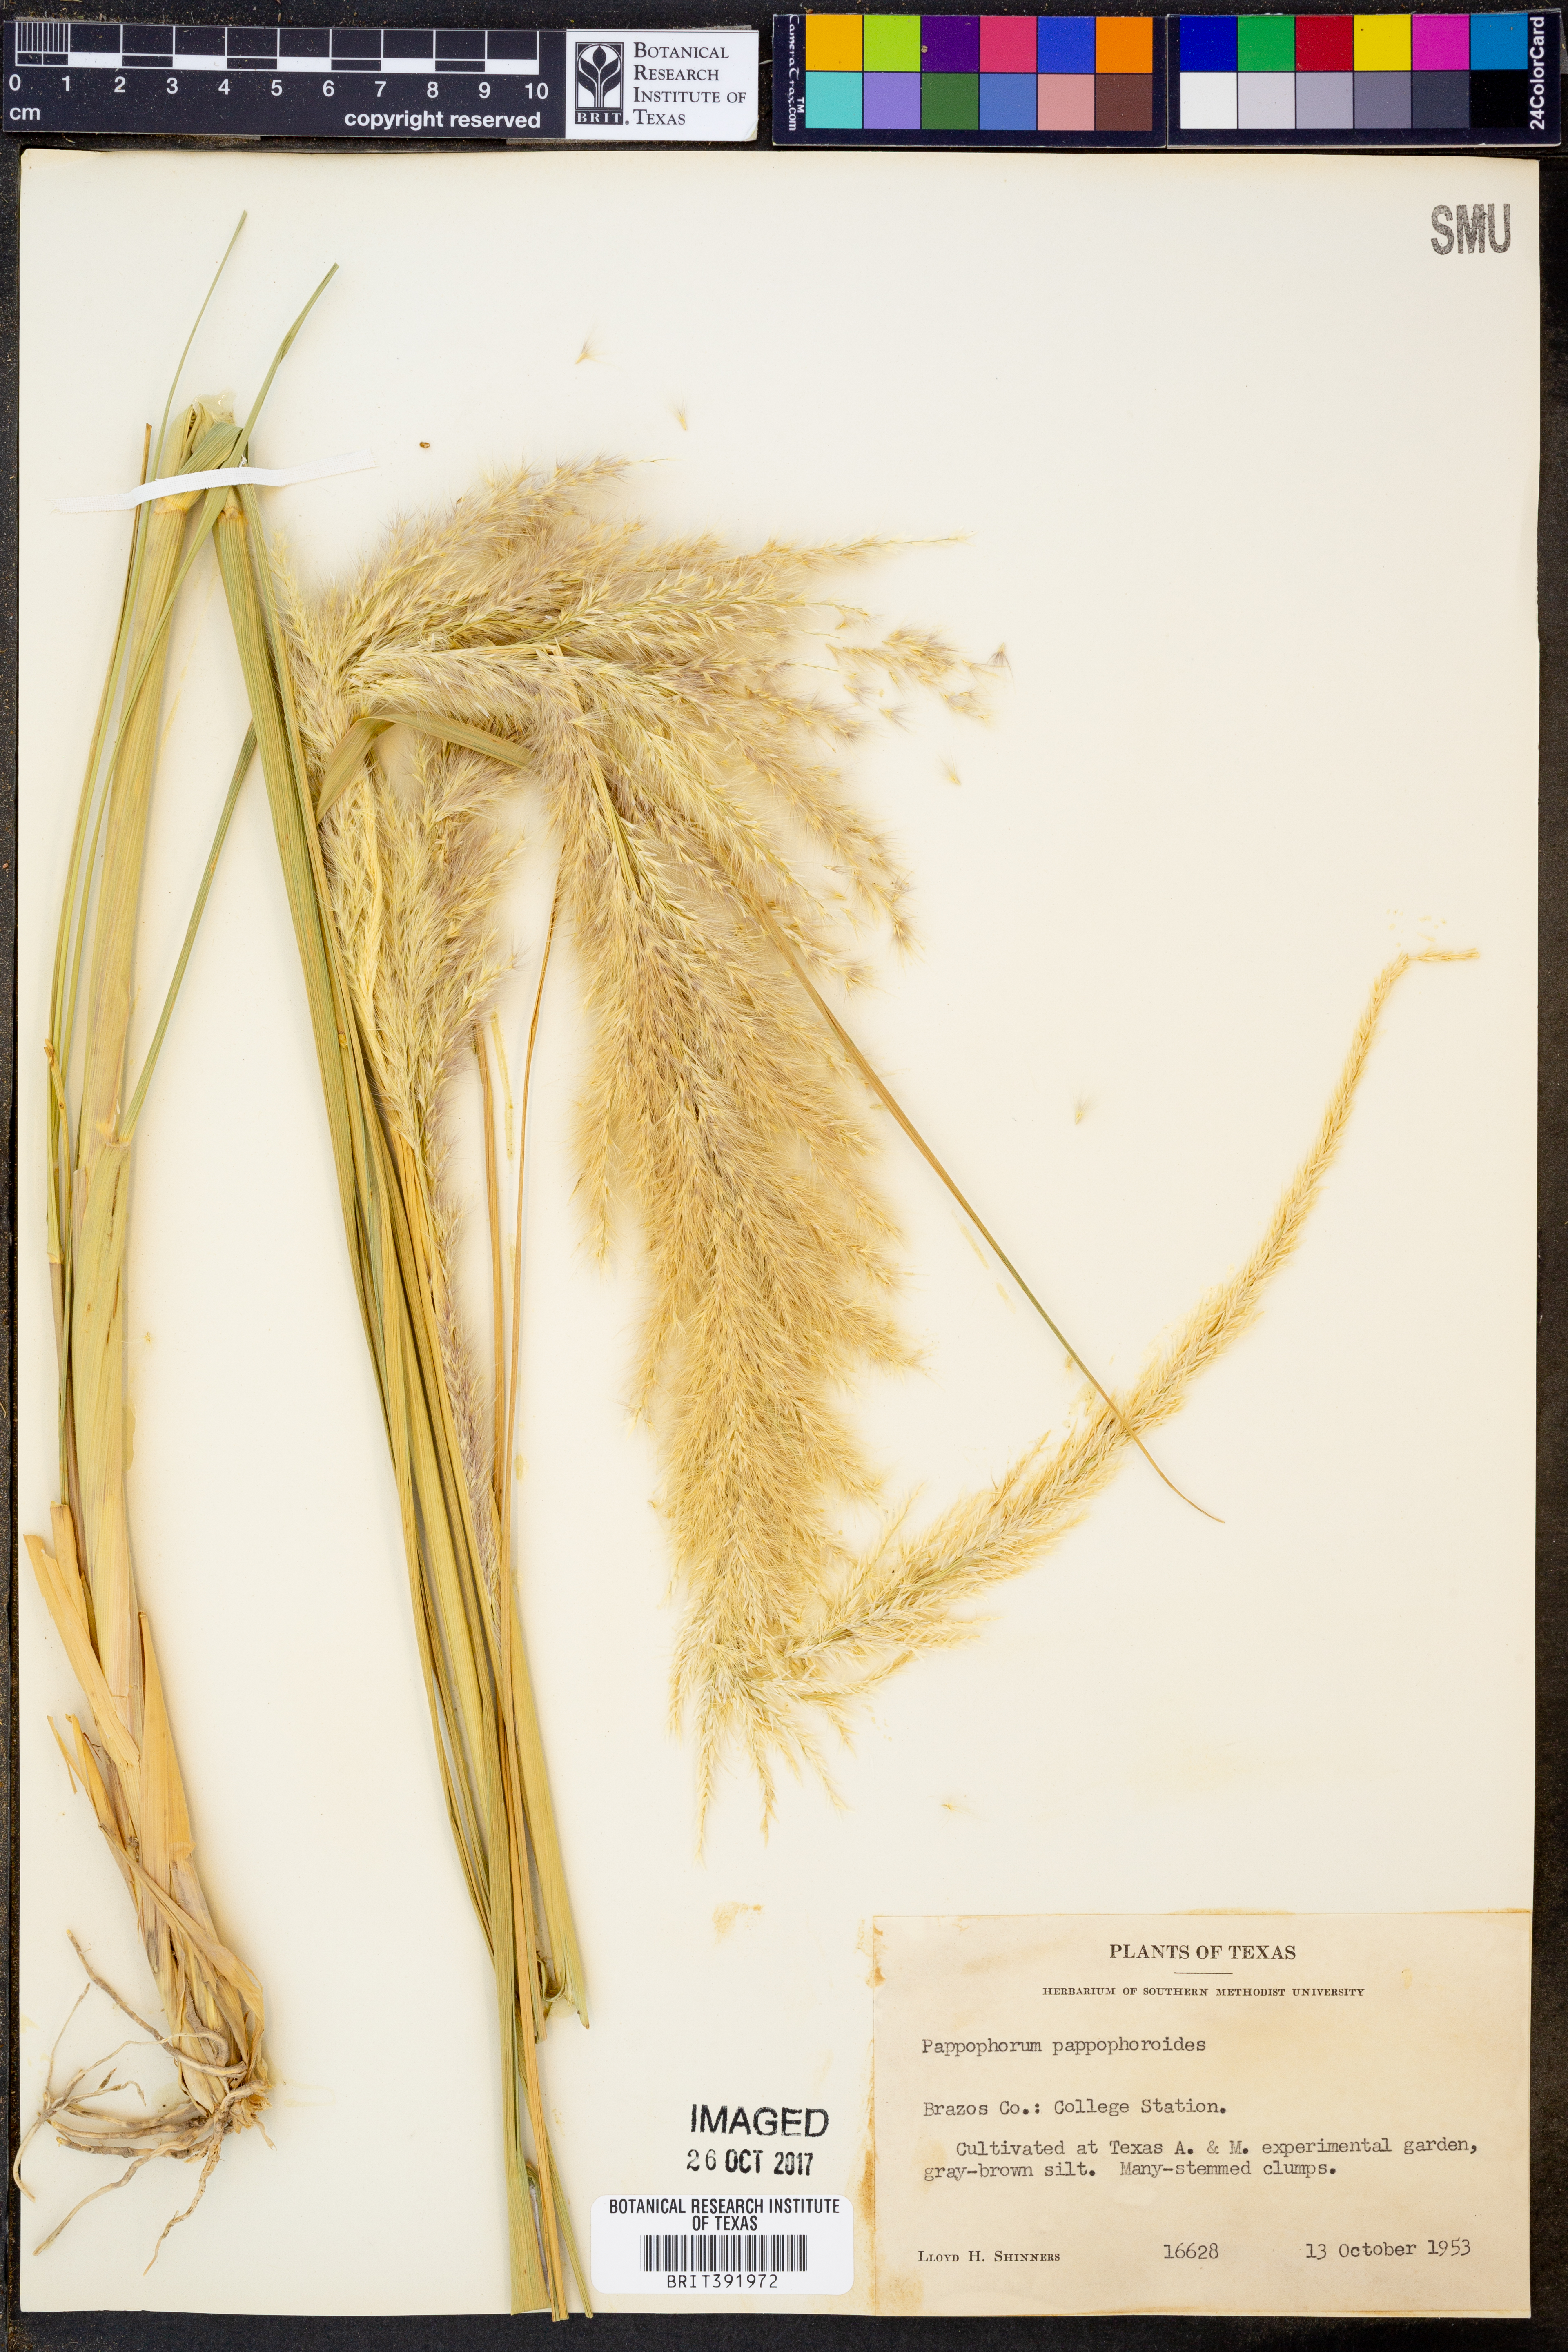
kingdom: Plantae
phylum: Tracheophyta
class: Liliopsida
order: Poales
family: Poaceae
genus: Pappophorum
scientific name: Pappophorum
